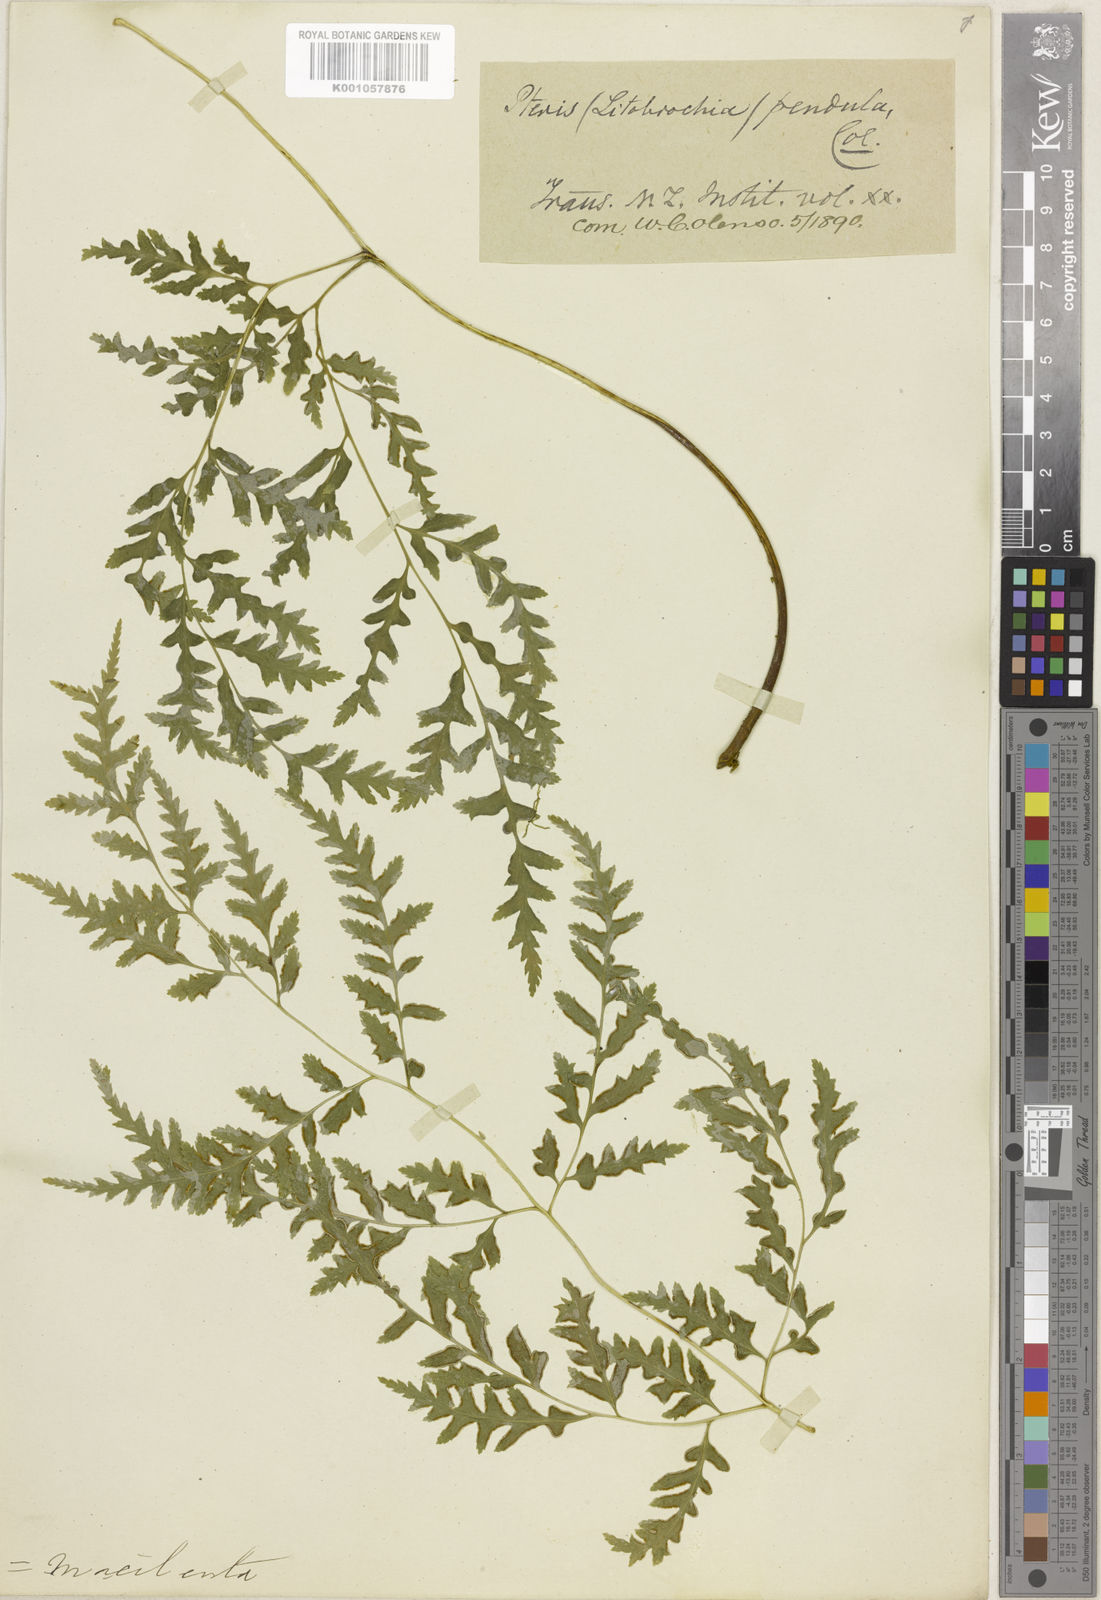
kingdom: Plantae
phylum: Tracheophyta
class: Polypodiopsida
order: Polypodiales
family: Pteridaceae
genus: Pteris
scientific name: Pteris macilenta
